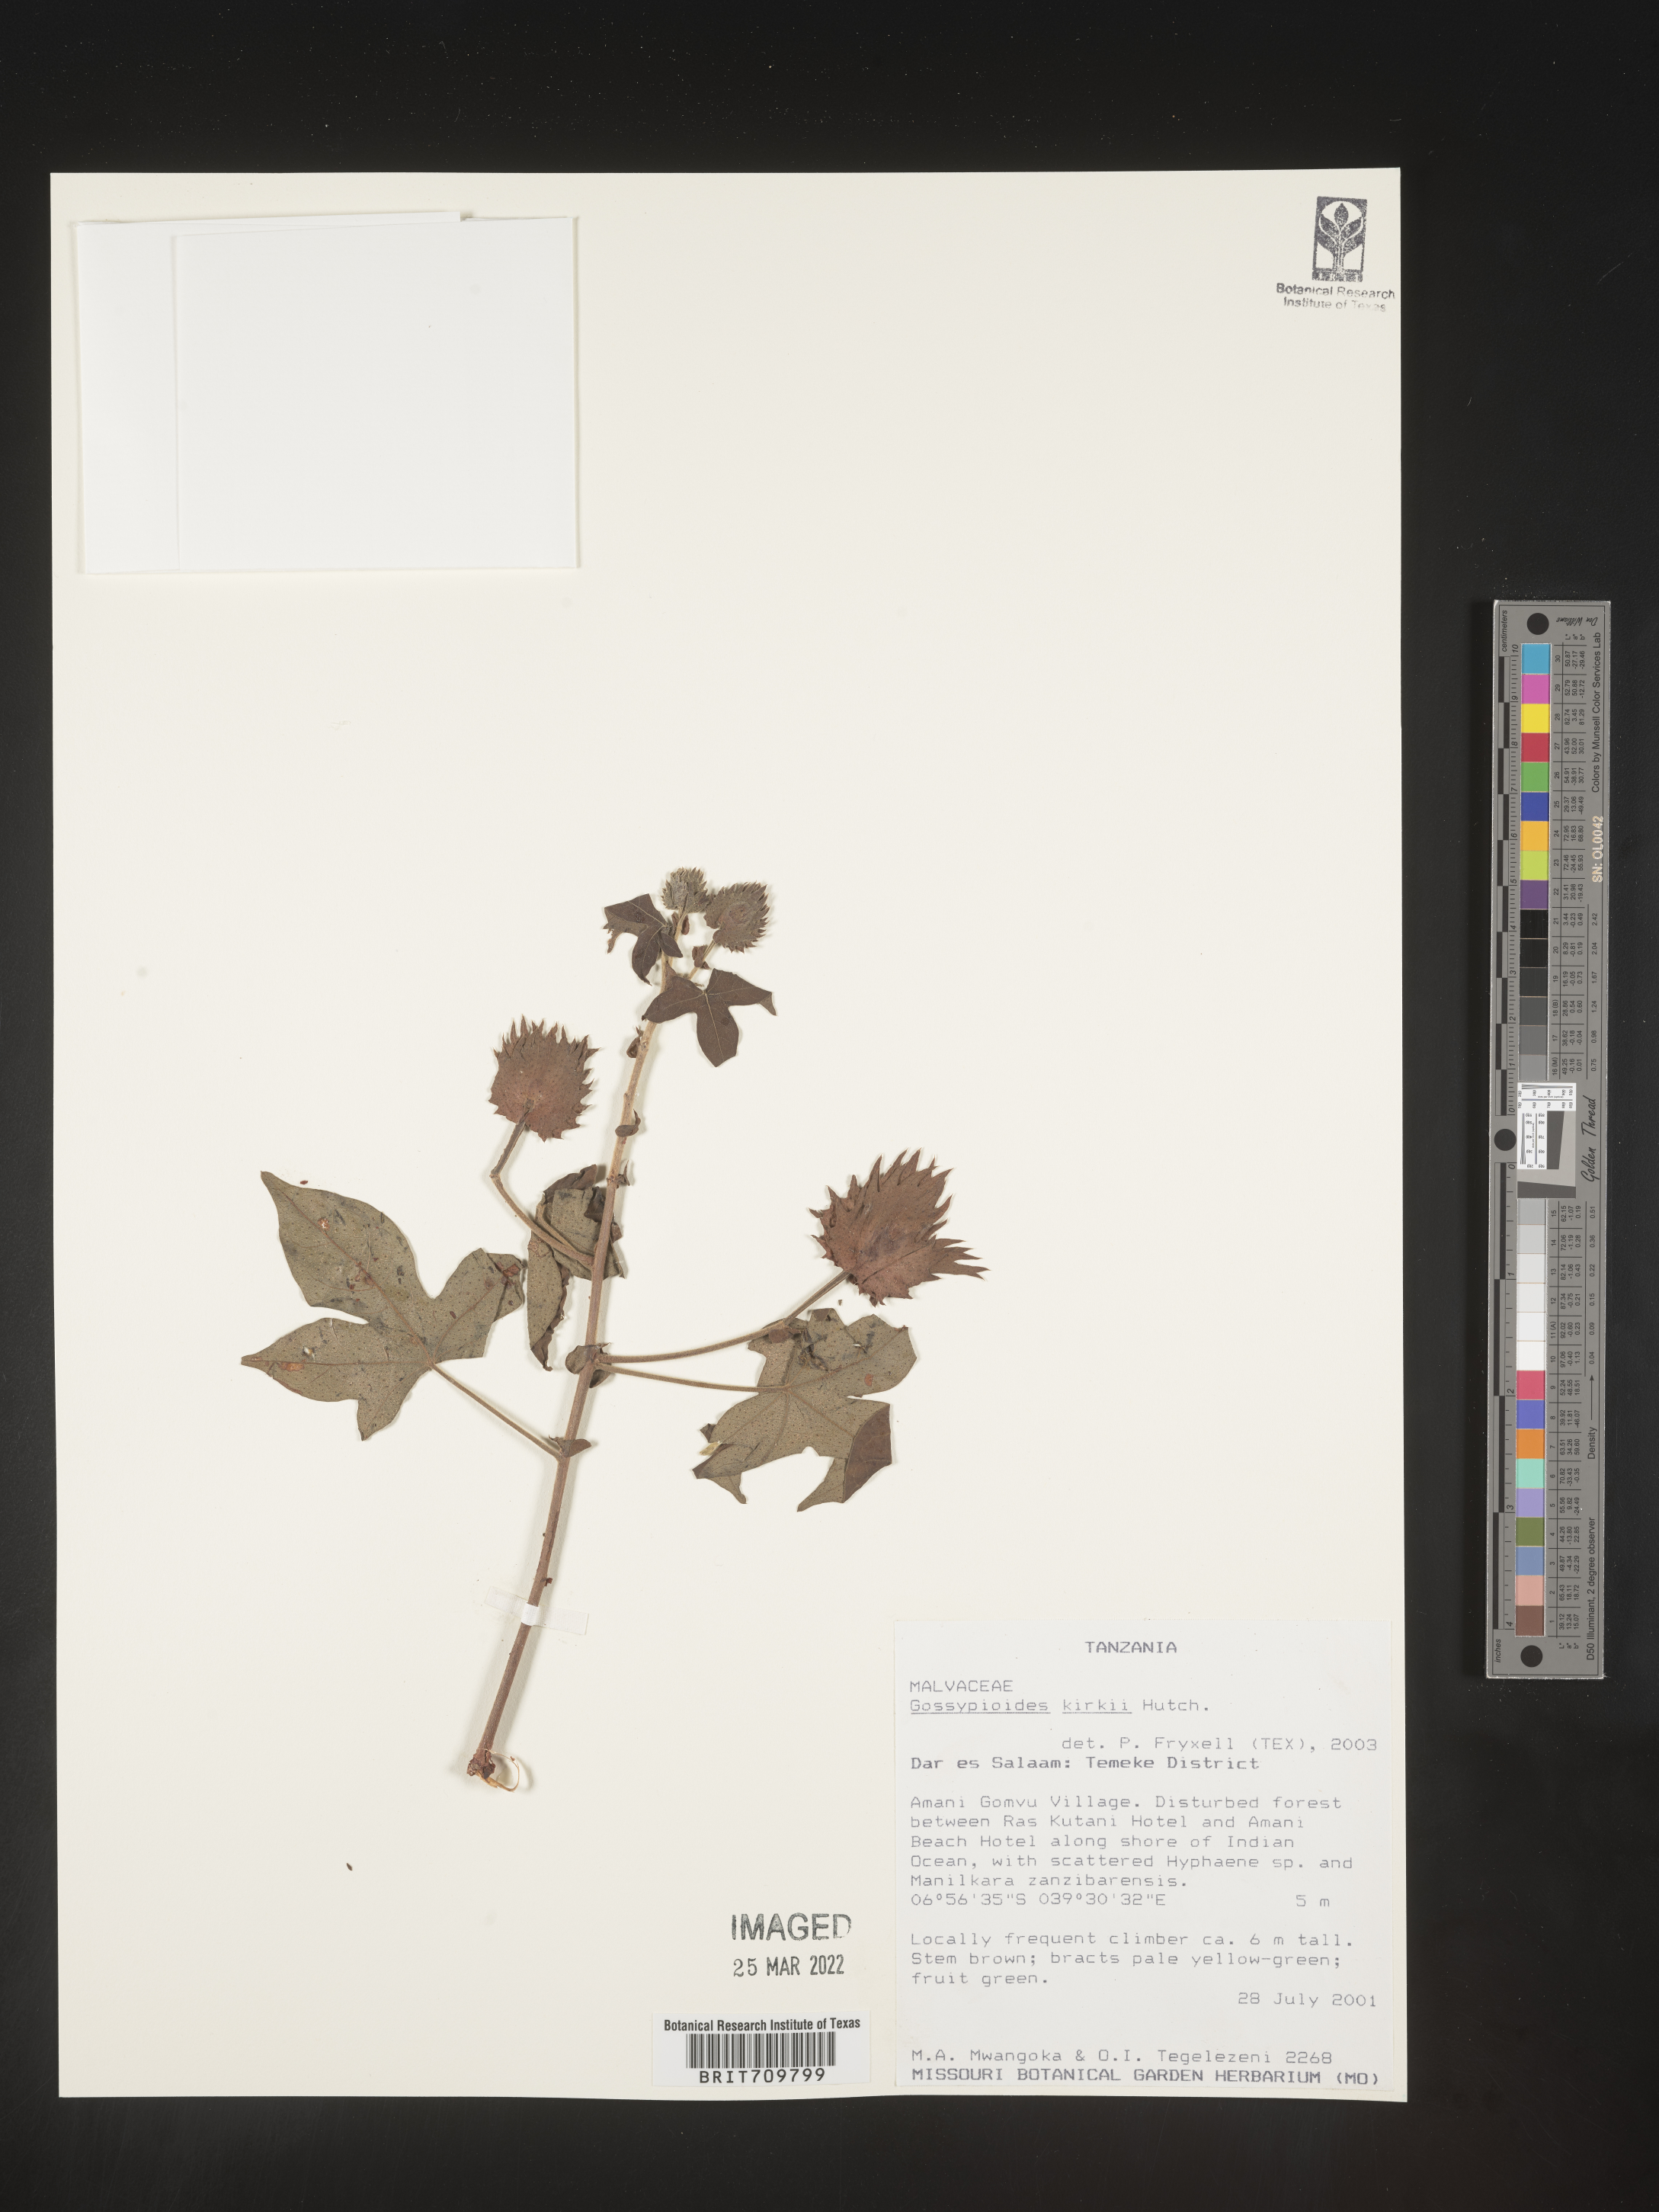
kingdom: Plantae
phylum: Tracheophyta
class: Magnoliopsida
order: Malvales
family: Malvaceae
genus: Gossypioides
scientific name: Gossypioides
